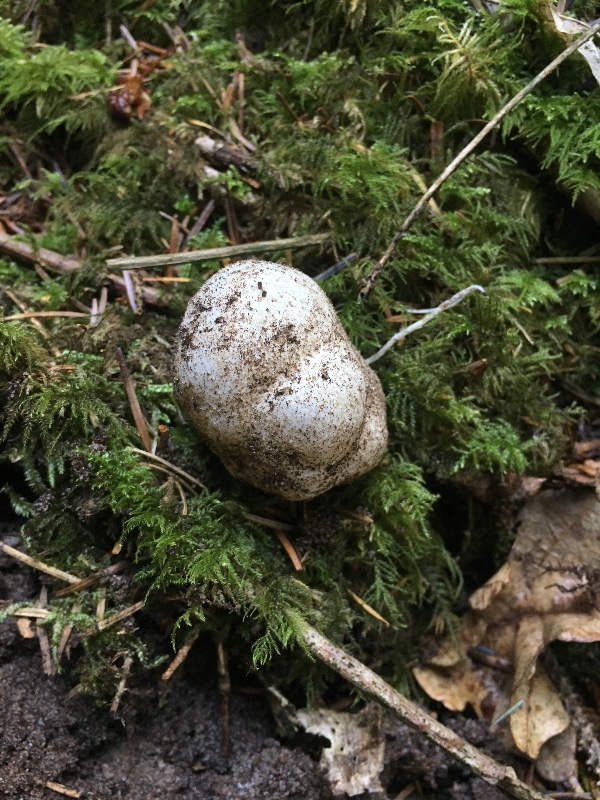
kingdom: Fungi
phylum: Basidiomycota
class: Agaricomycetes
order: Phallales
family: Phallaceae
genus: Phallus
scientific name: Phallus impudicus
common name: almindelig stinksvamp
